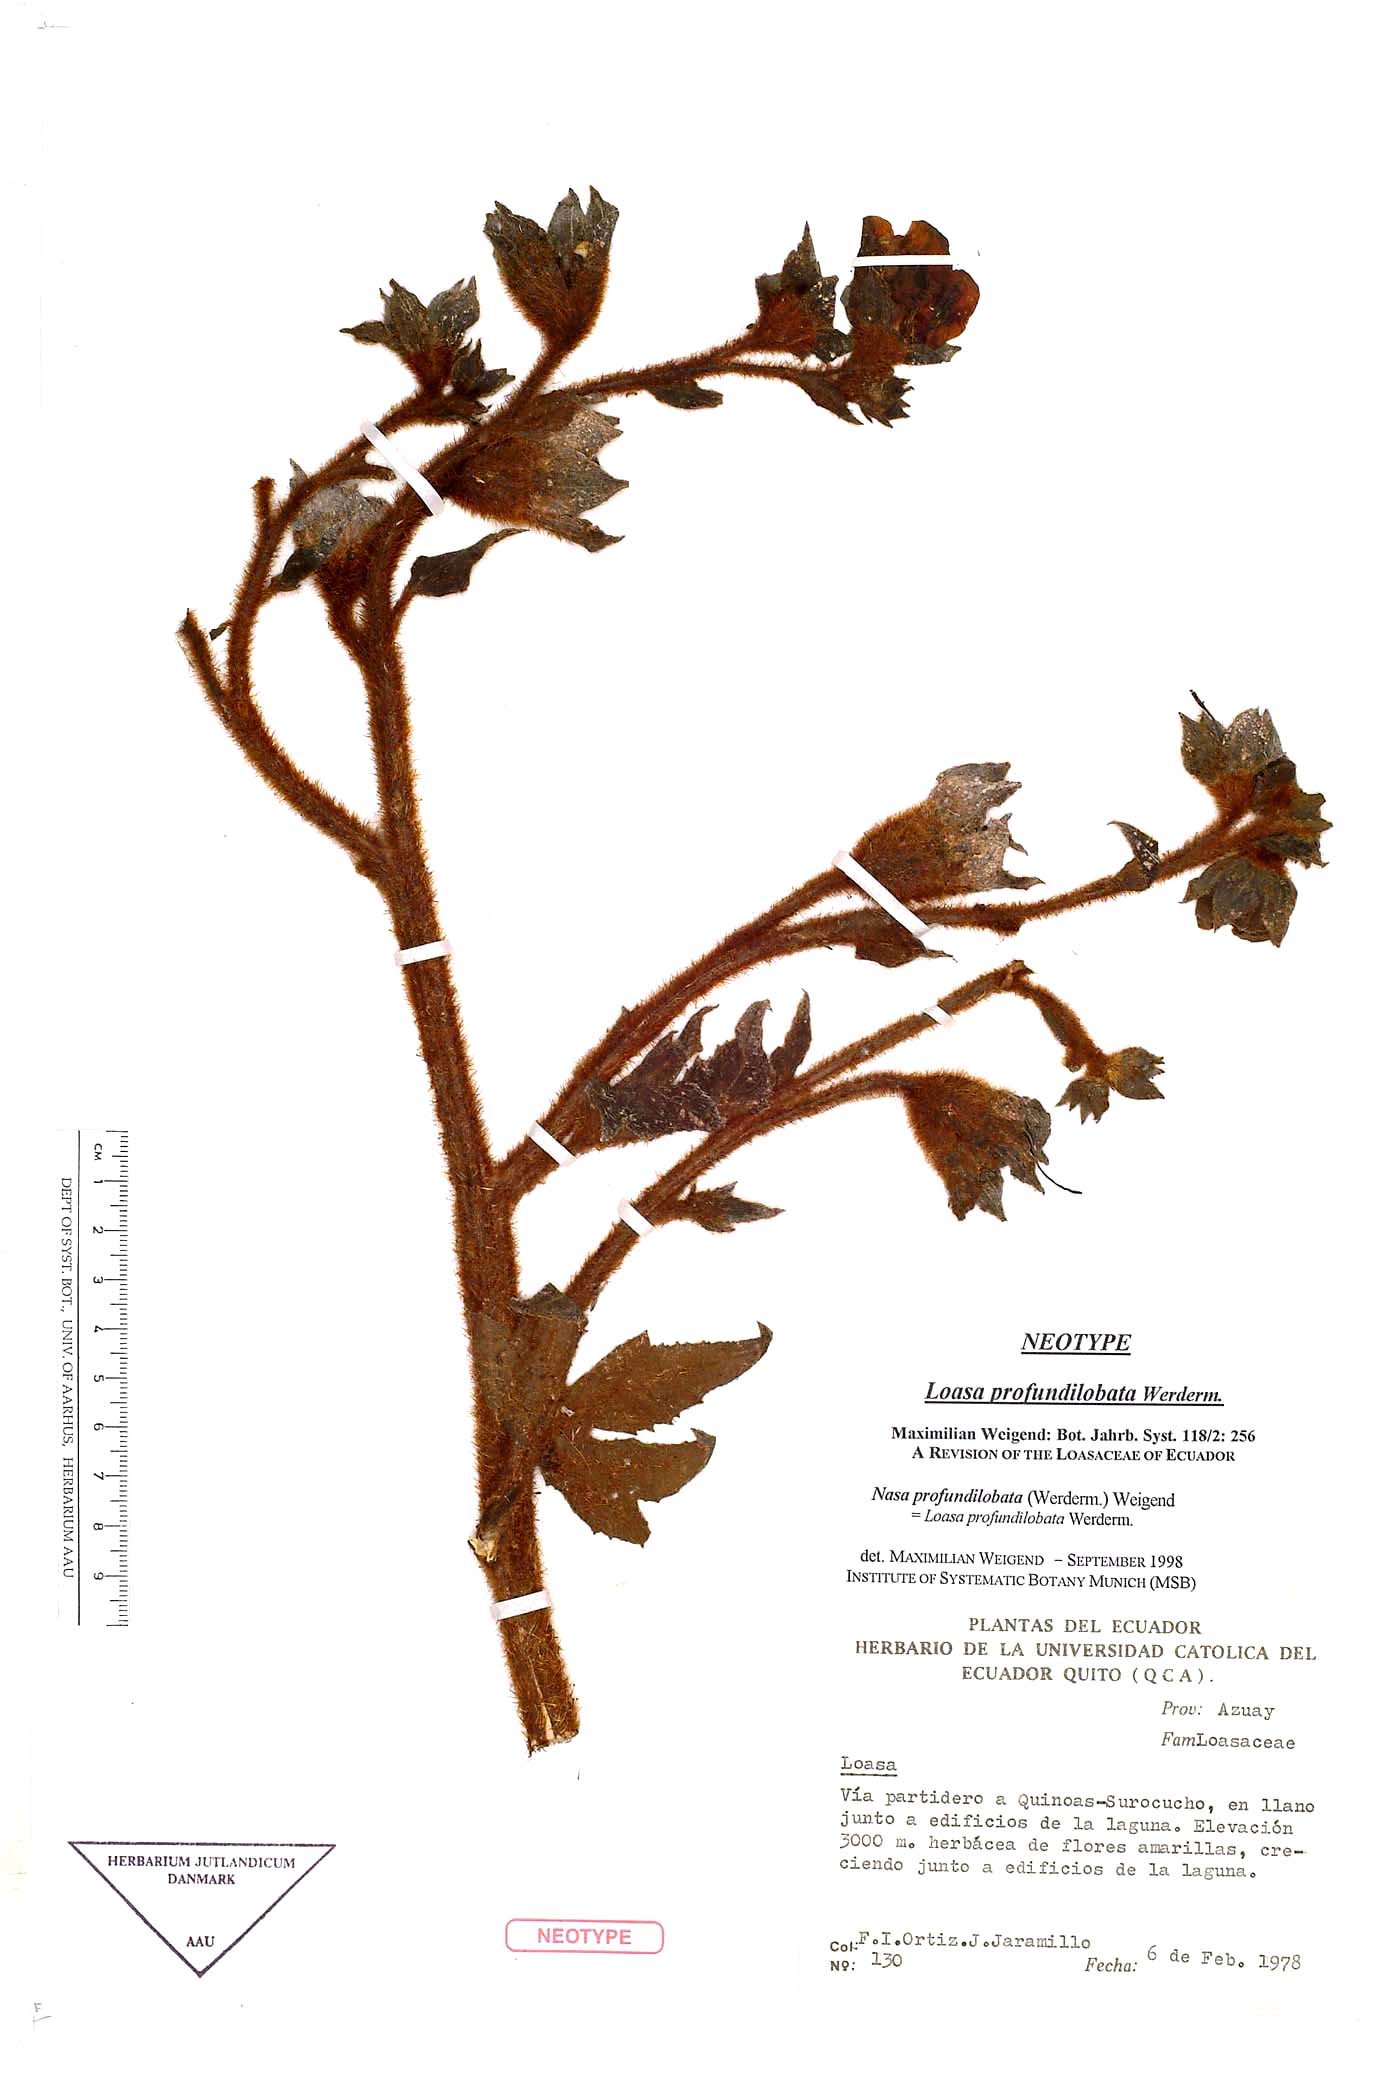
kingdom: Plantae
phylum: Tracheophyta
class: Magnoliopsida
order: Cornales
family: Loasaceae
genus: Nasa
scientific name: Nasa profundilobata
